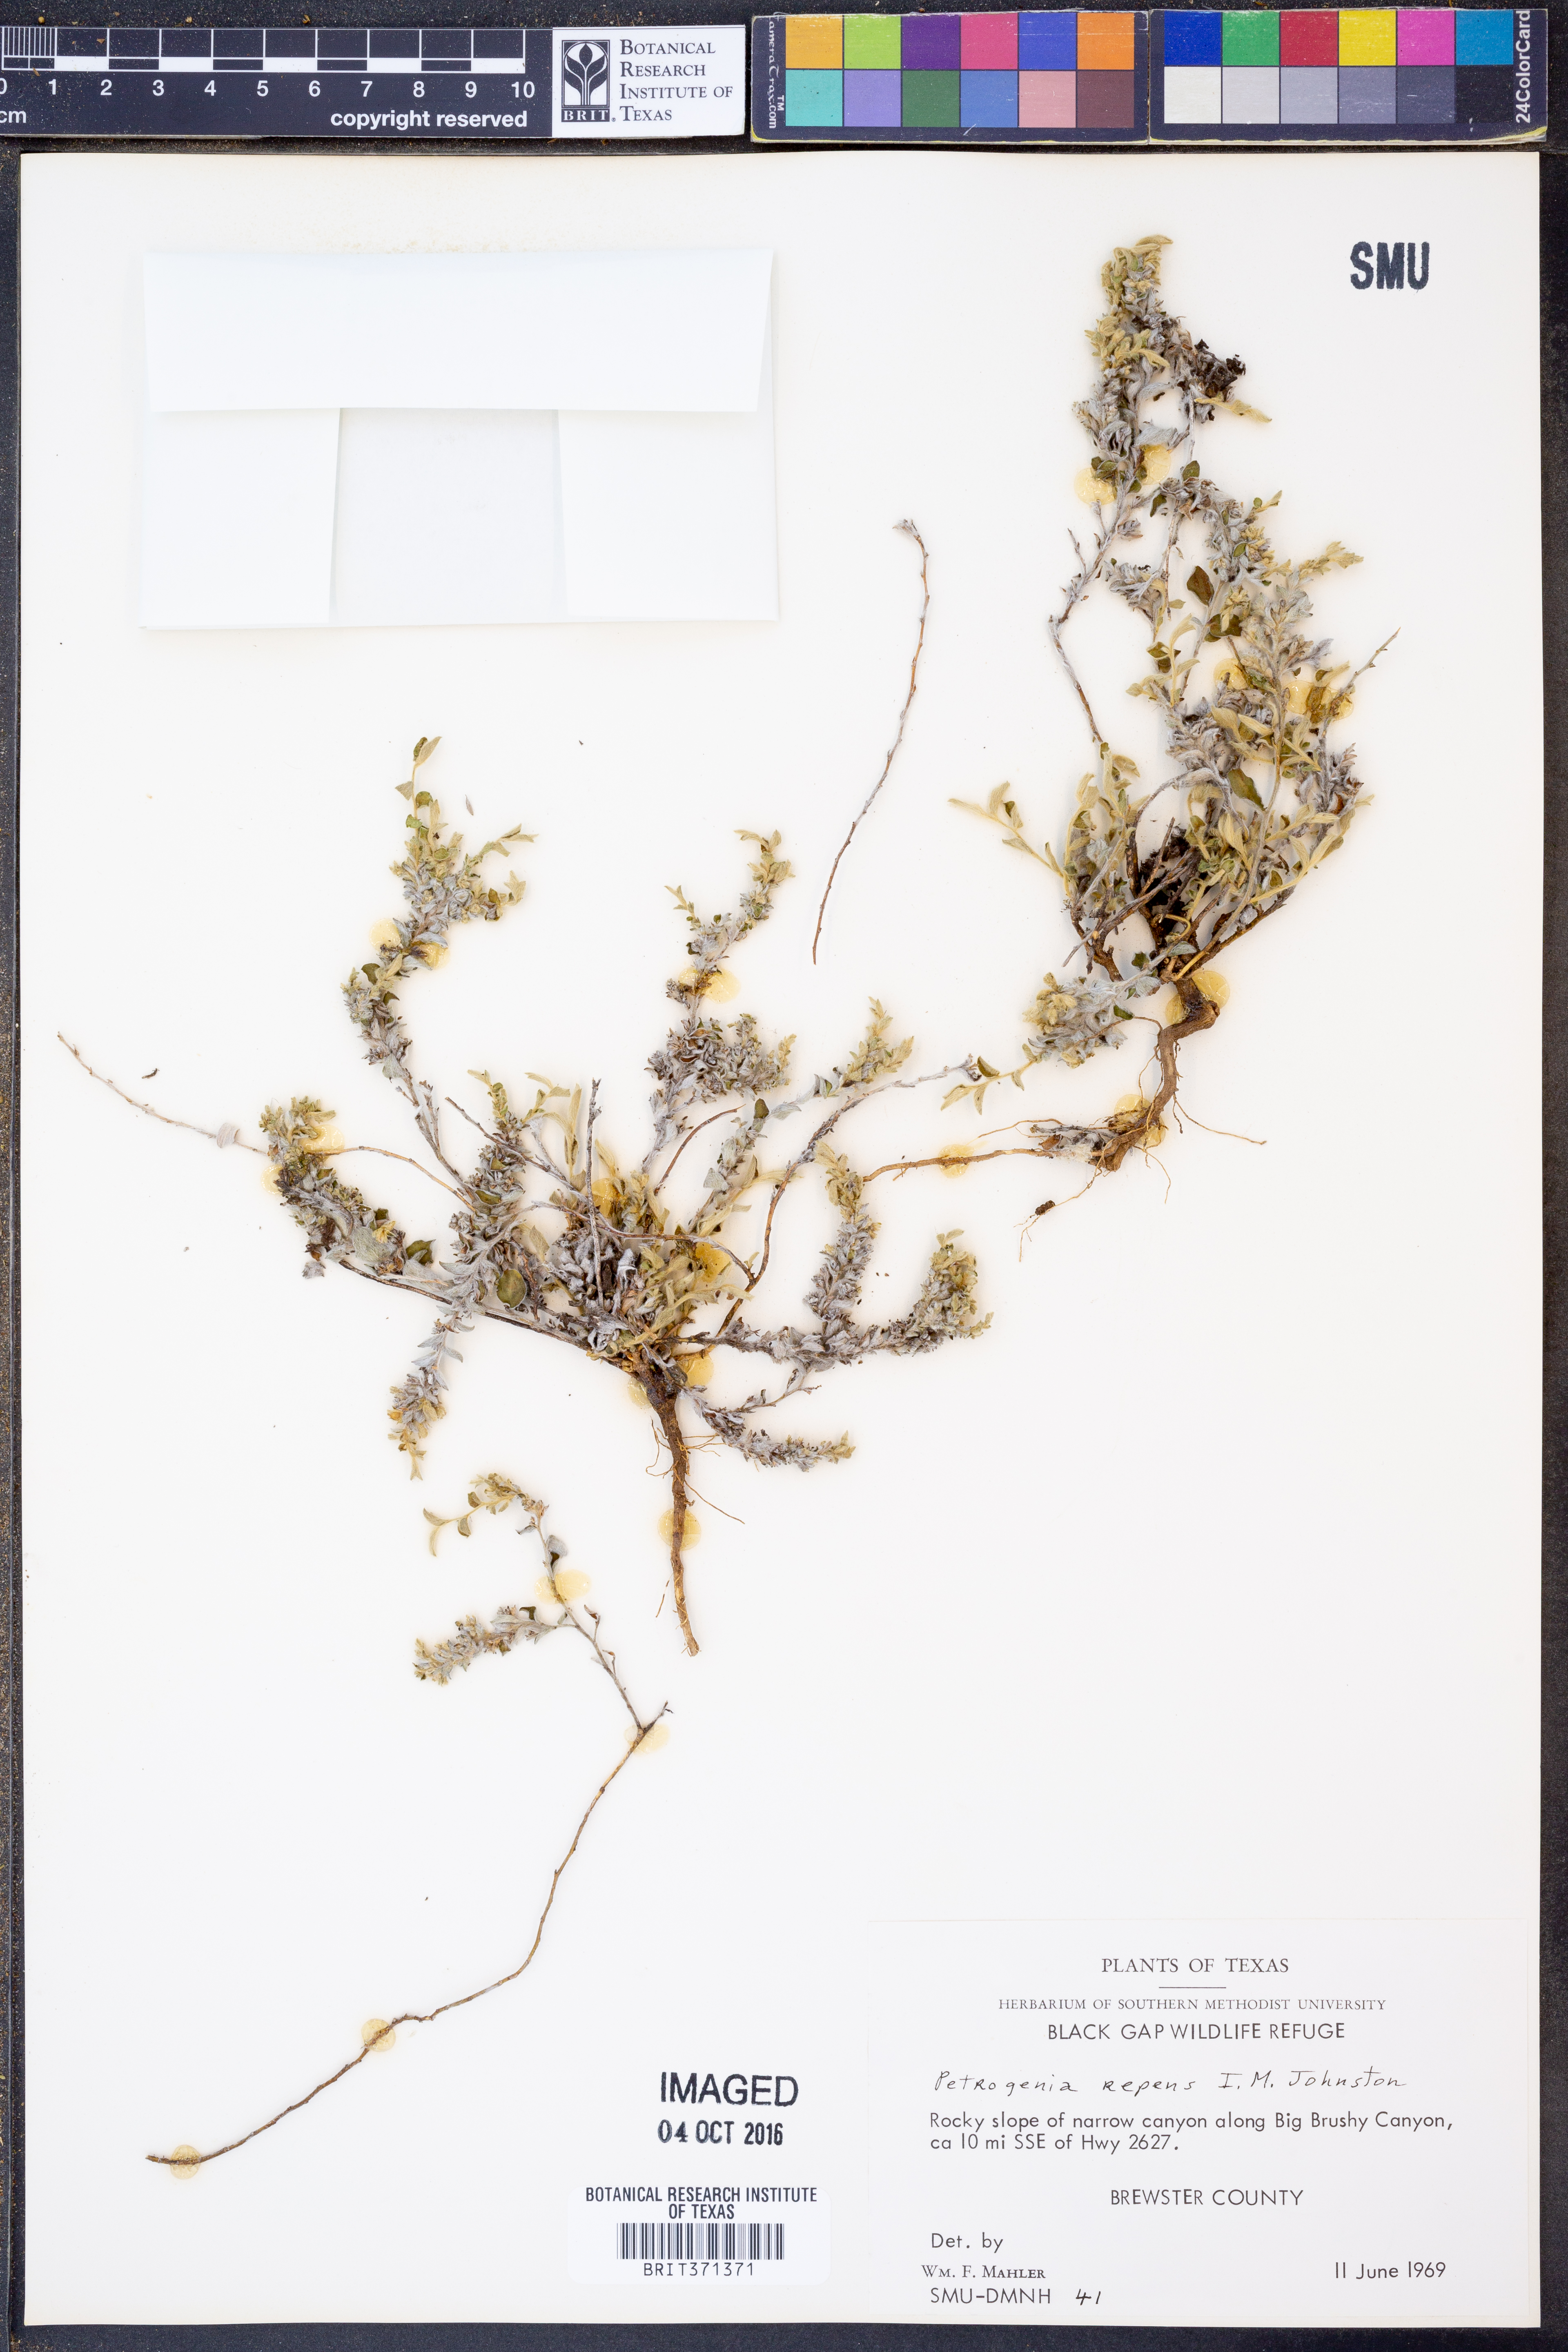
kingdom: Plantae
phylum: Tracheophyta
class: Magnoliopsida
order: Solanales
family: Convolvulaceae
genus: Bonamia
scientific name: Bonamia repens
